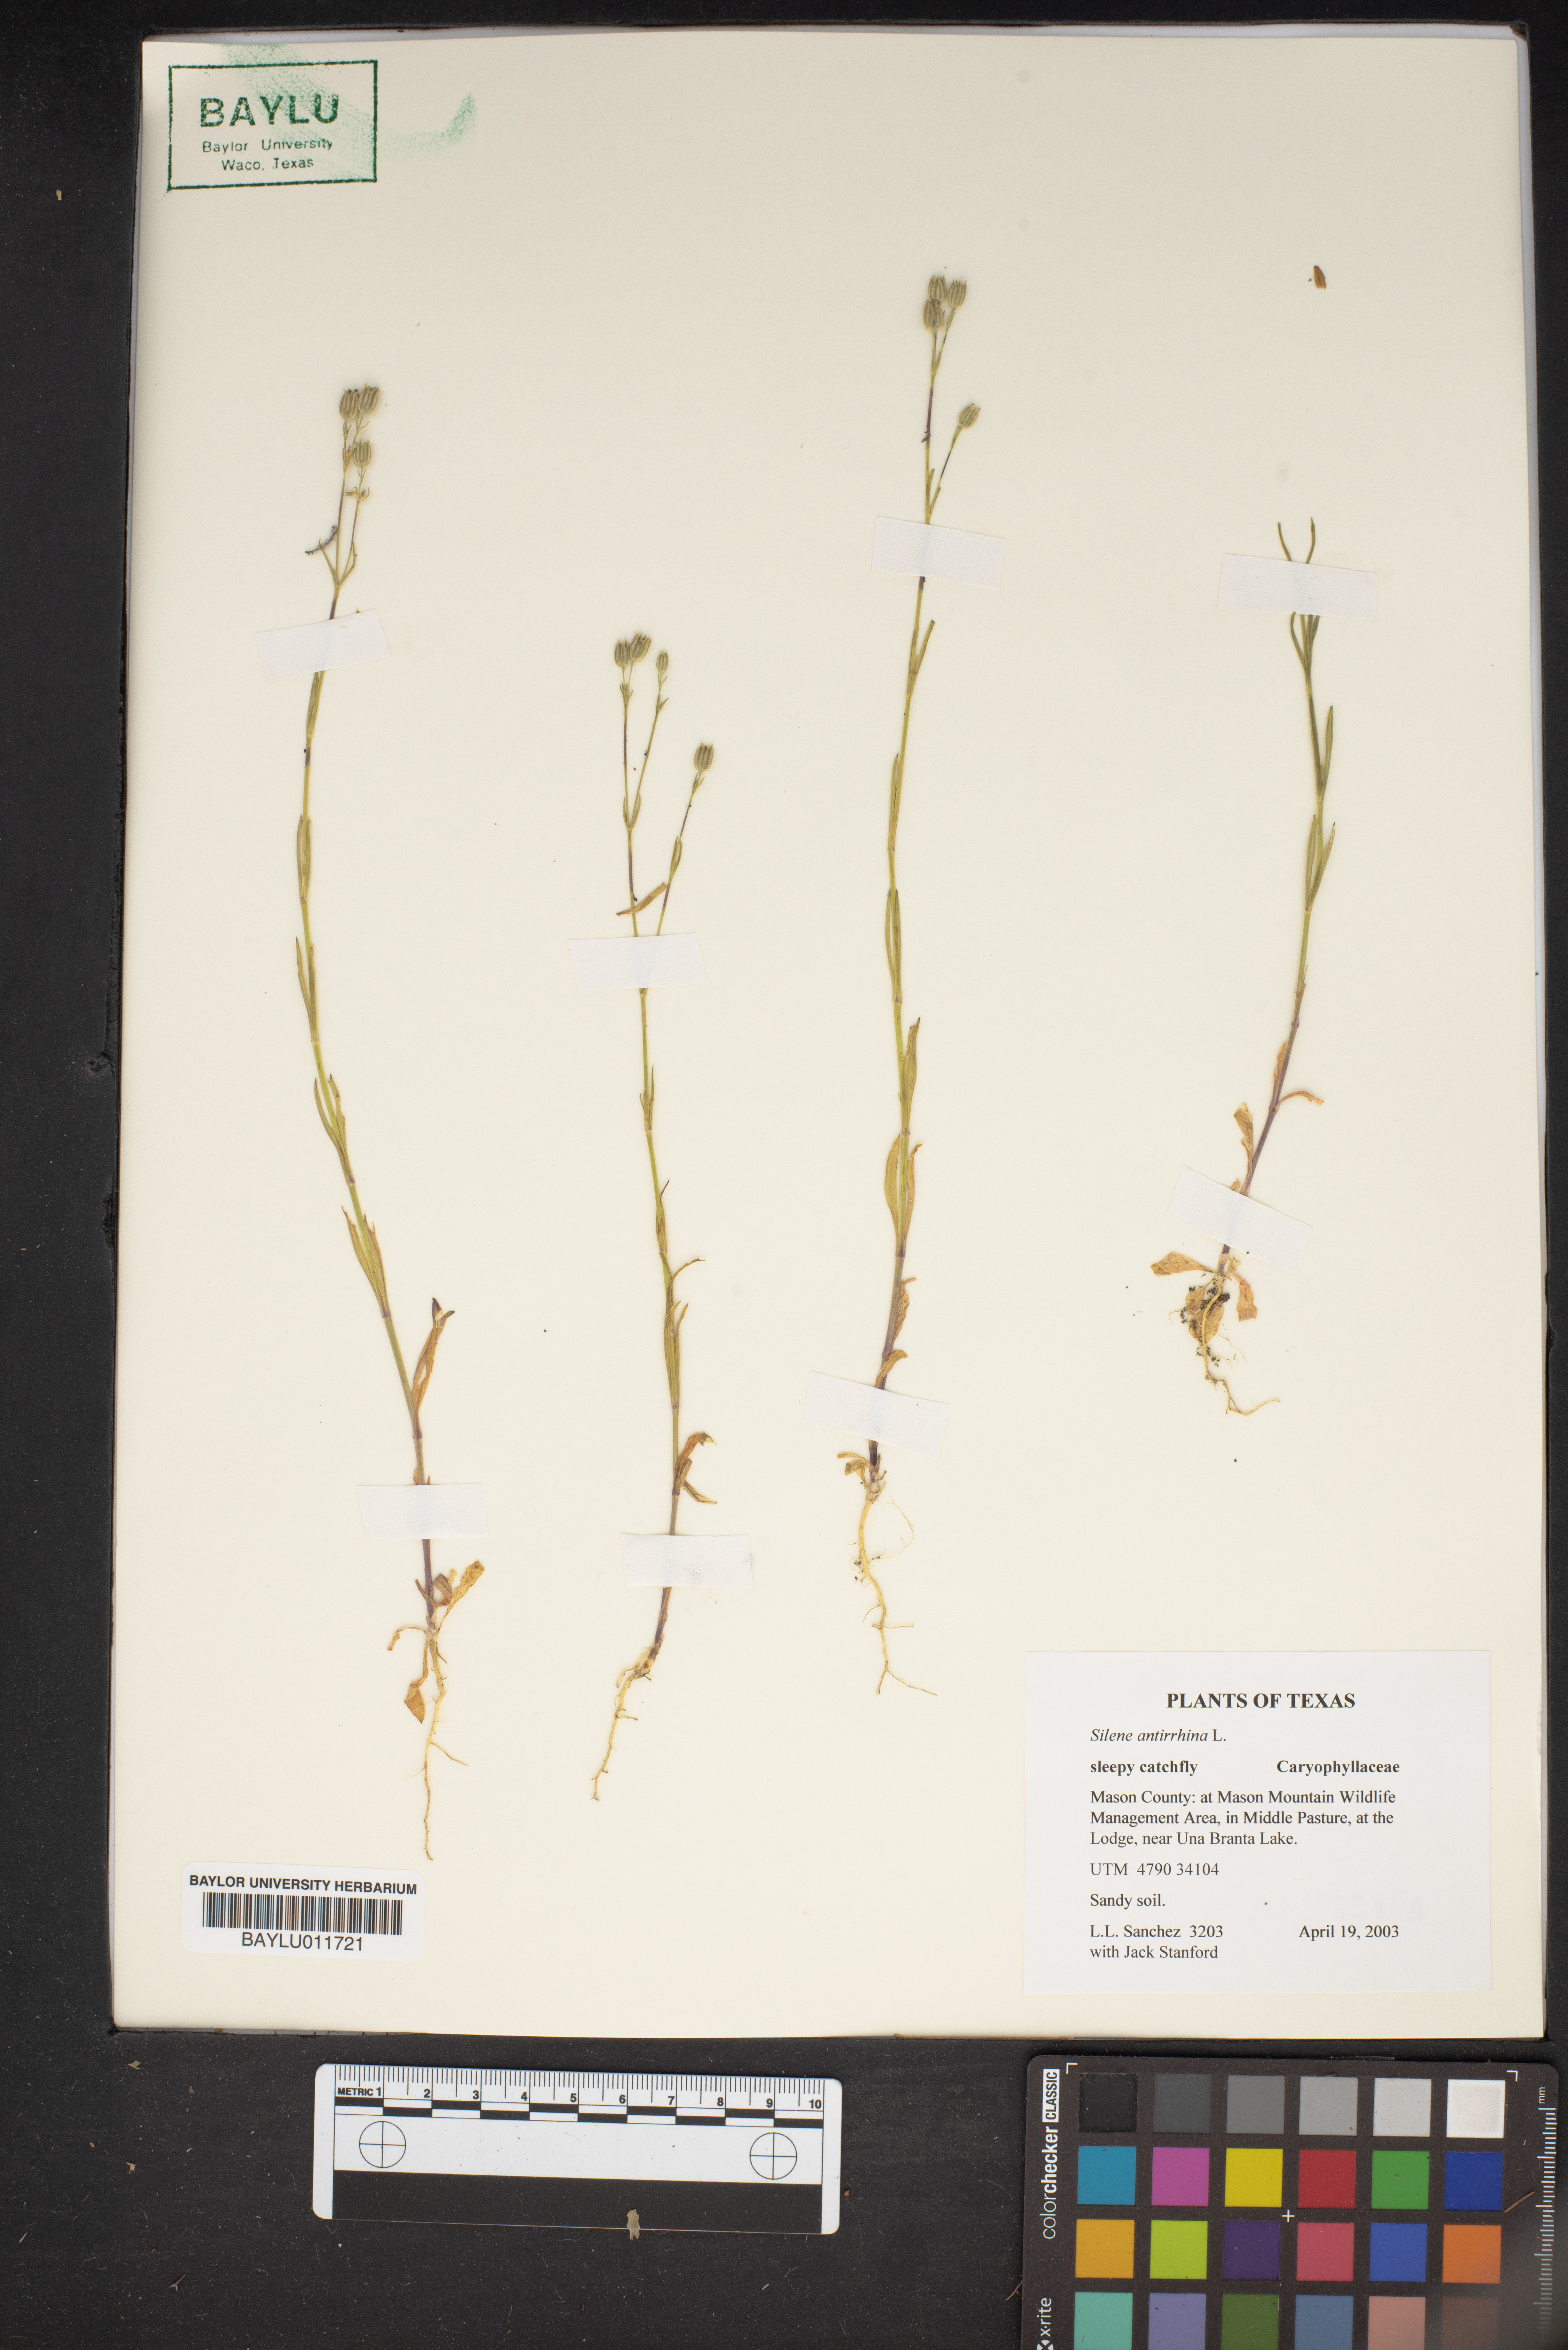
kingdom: Plantae
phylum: Tracheophyta
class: Magnoliopsida
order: Caryophyllales
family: Caryophyllaceae
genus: Silene
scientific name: Silene antirrhina
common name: Sleepy catchfly
